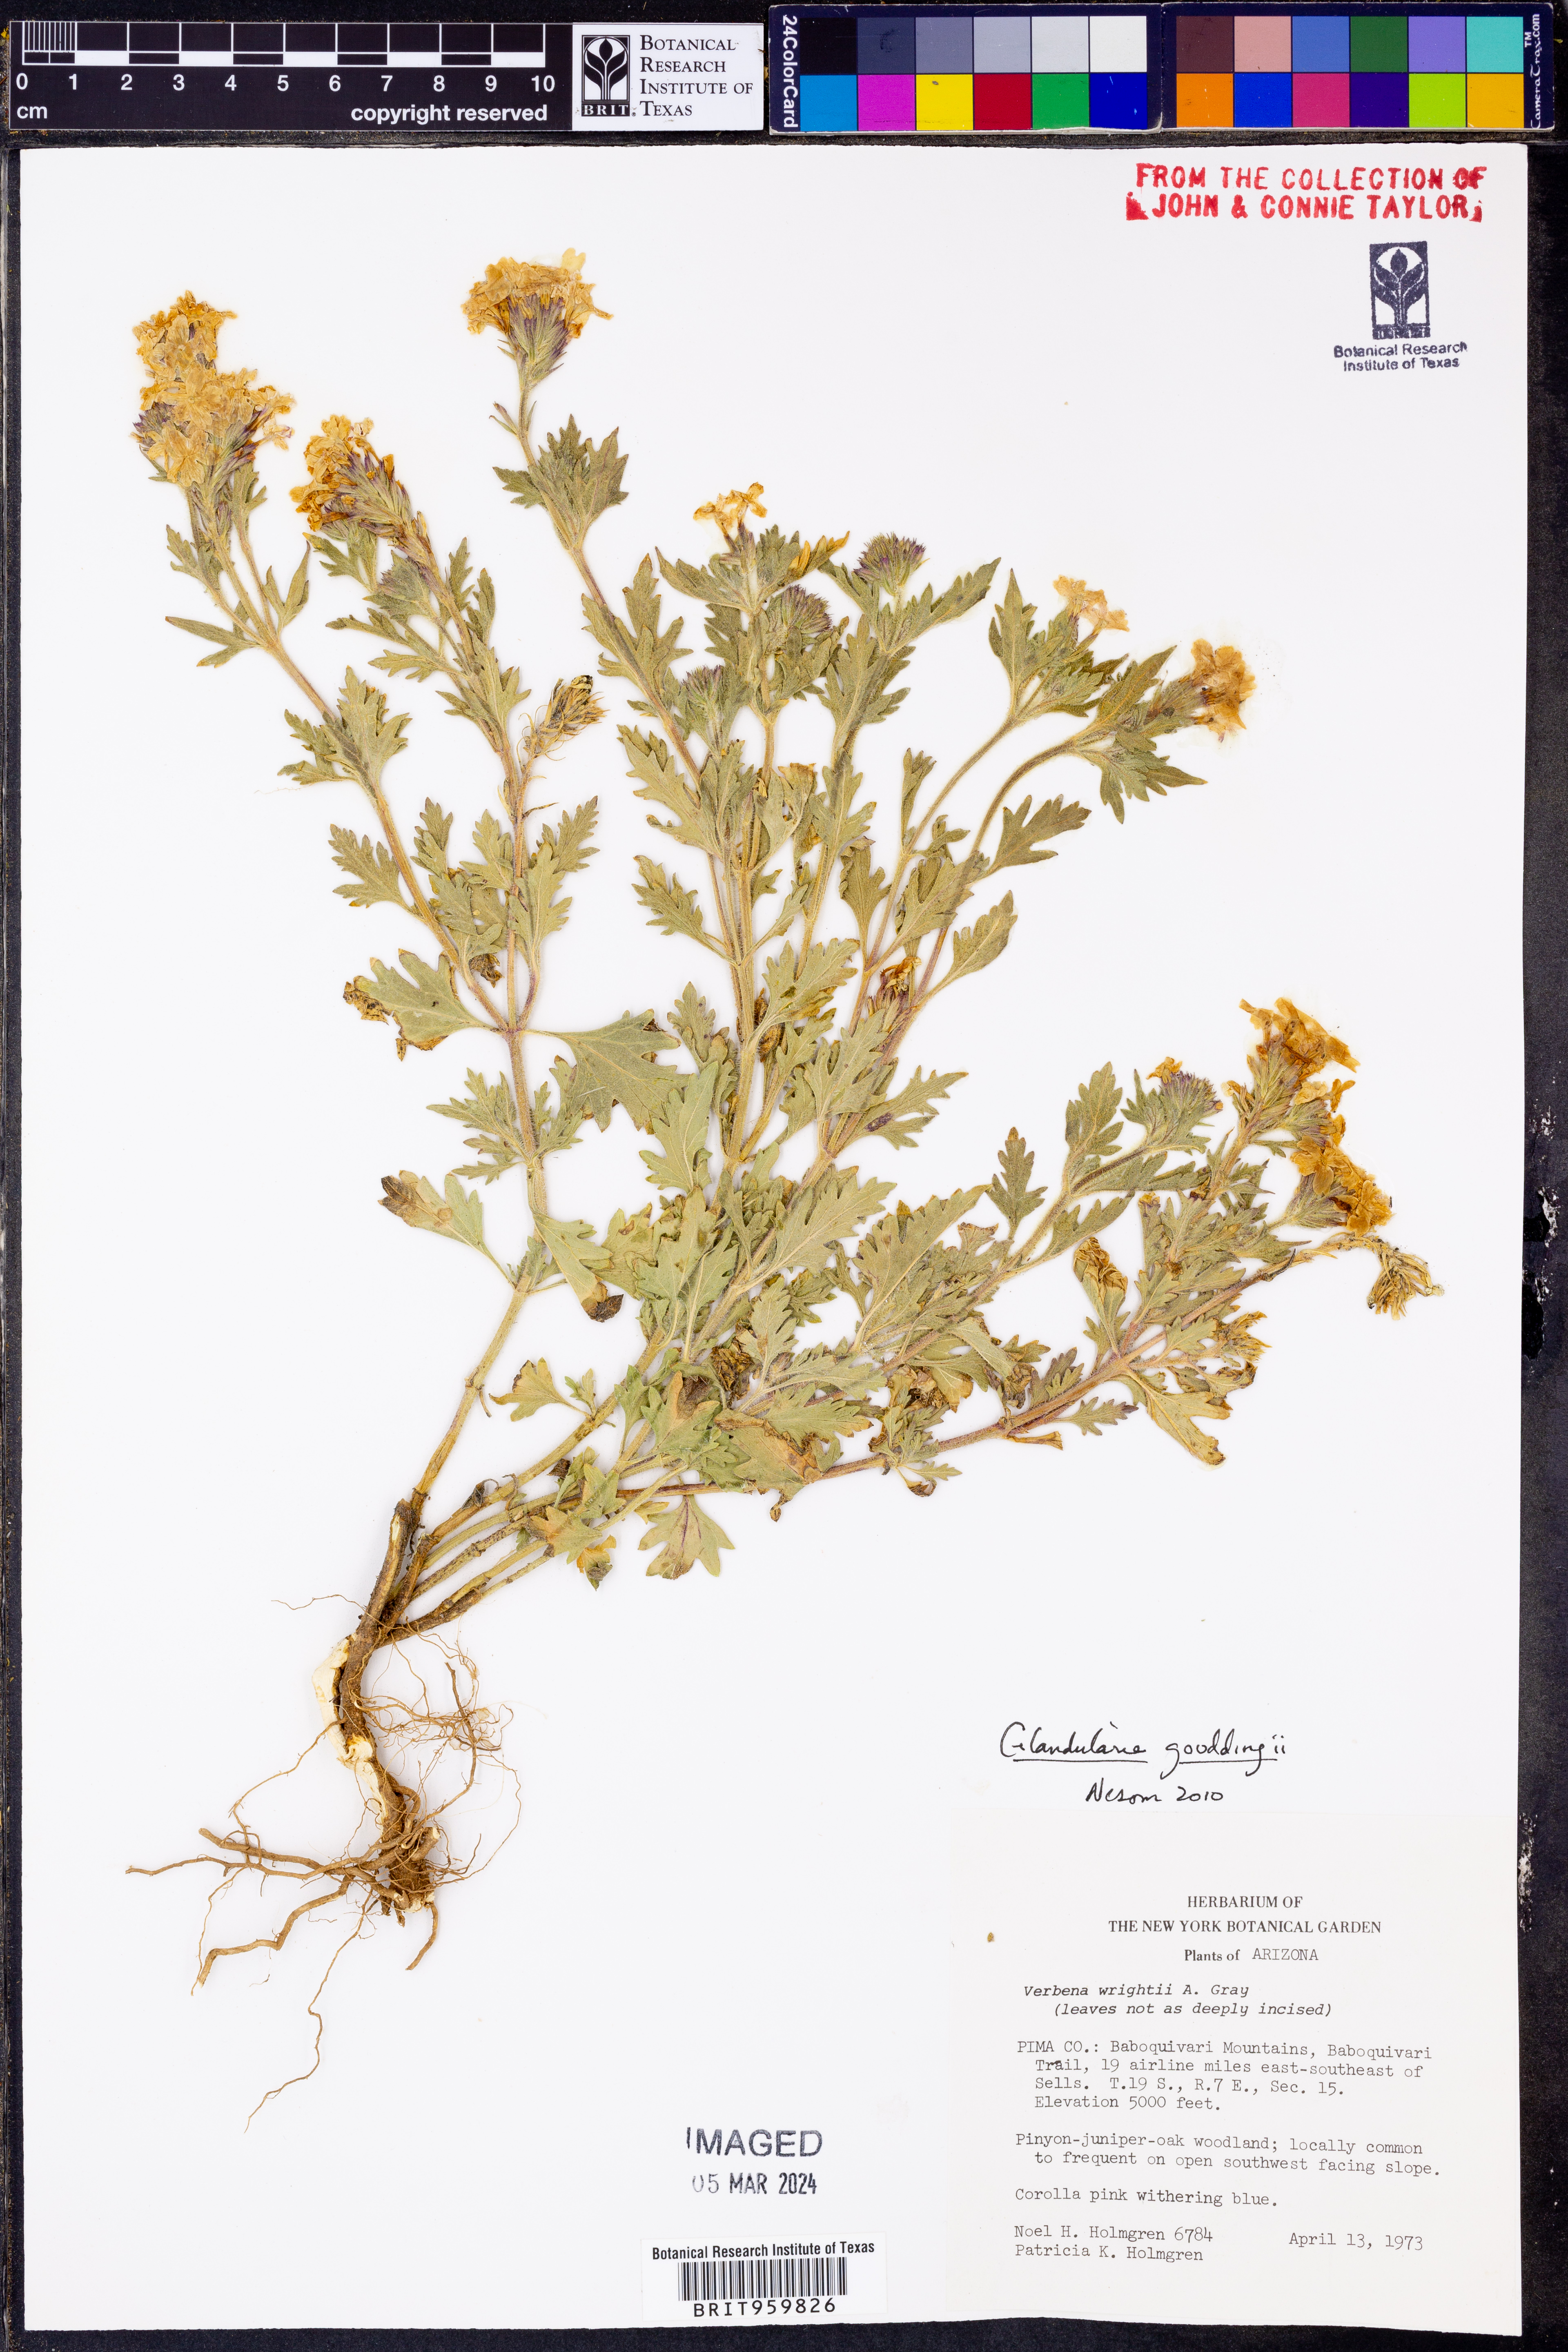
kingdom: Plantae
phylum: Tracheophyta
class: Magnoliopsida
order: Lamiales
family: Verbenaceae
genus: Verbena
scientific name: Verbena gooddingii
